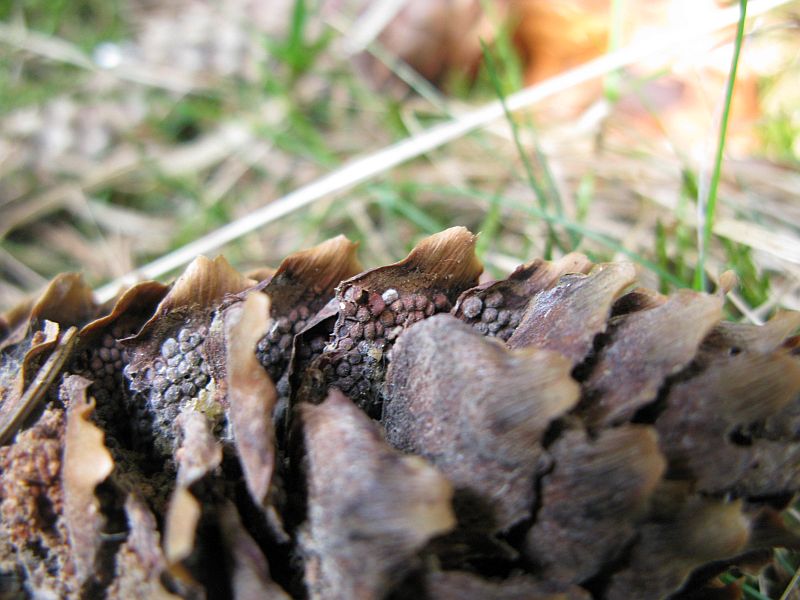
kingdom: Fungi
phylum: Basidiomycota
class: Pucciniomycetes
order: Pucciniales
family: Pucciniastraceae
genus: Thekopsora
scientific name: Thekopsora areolata
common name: grankogle-nålerust
